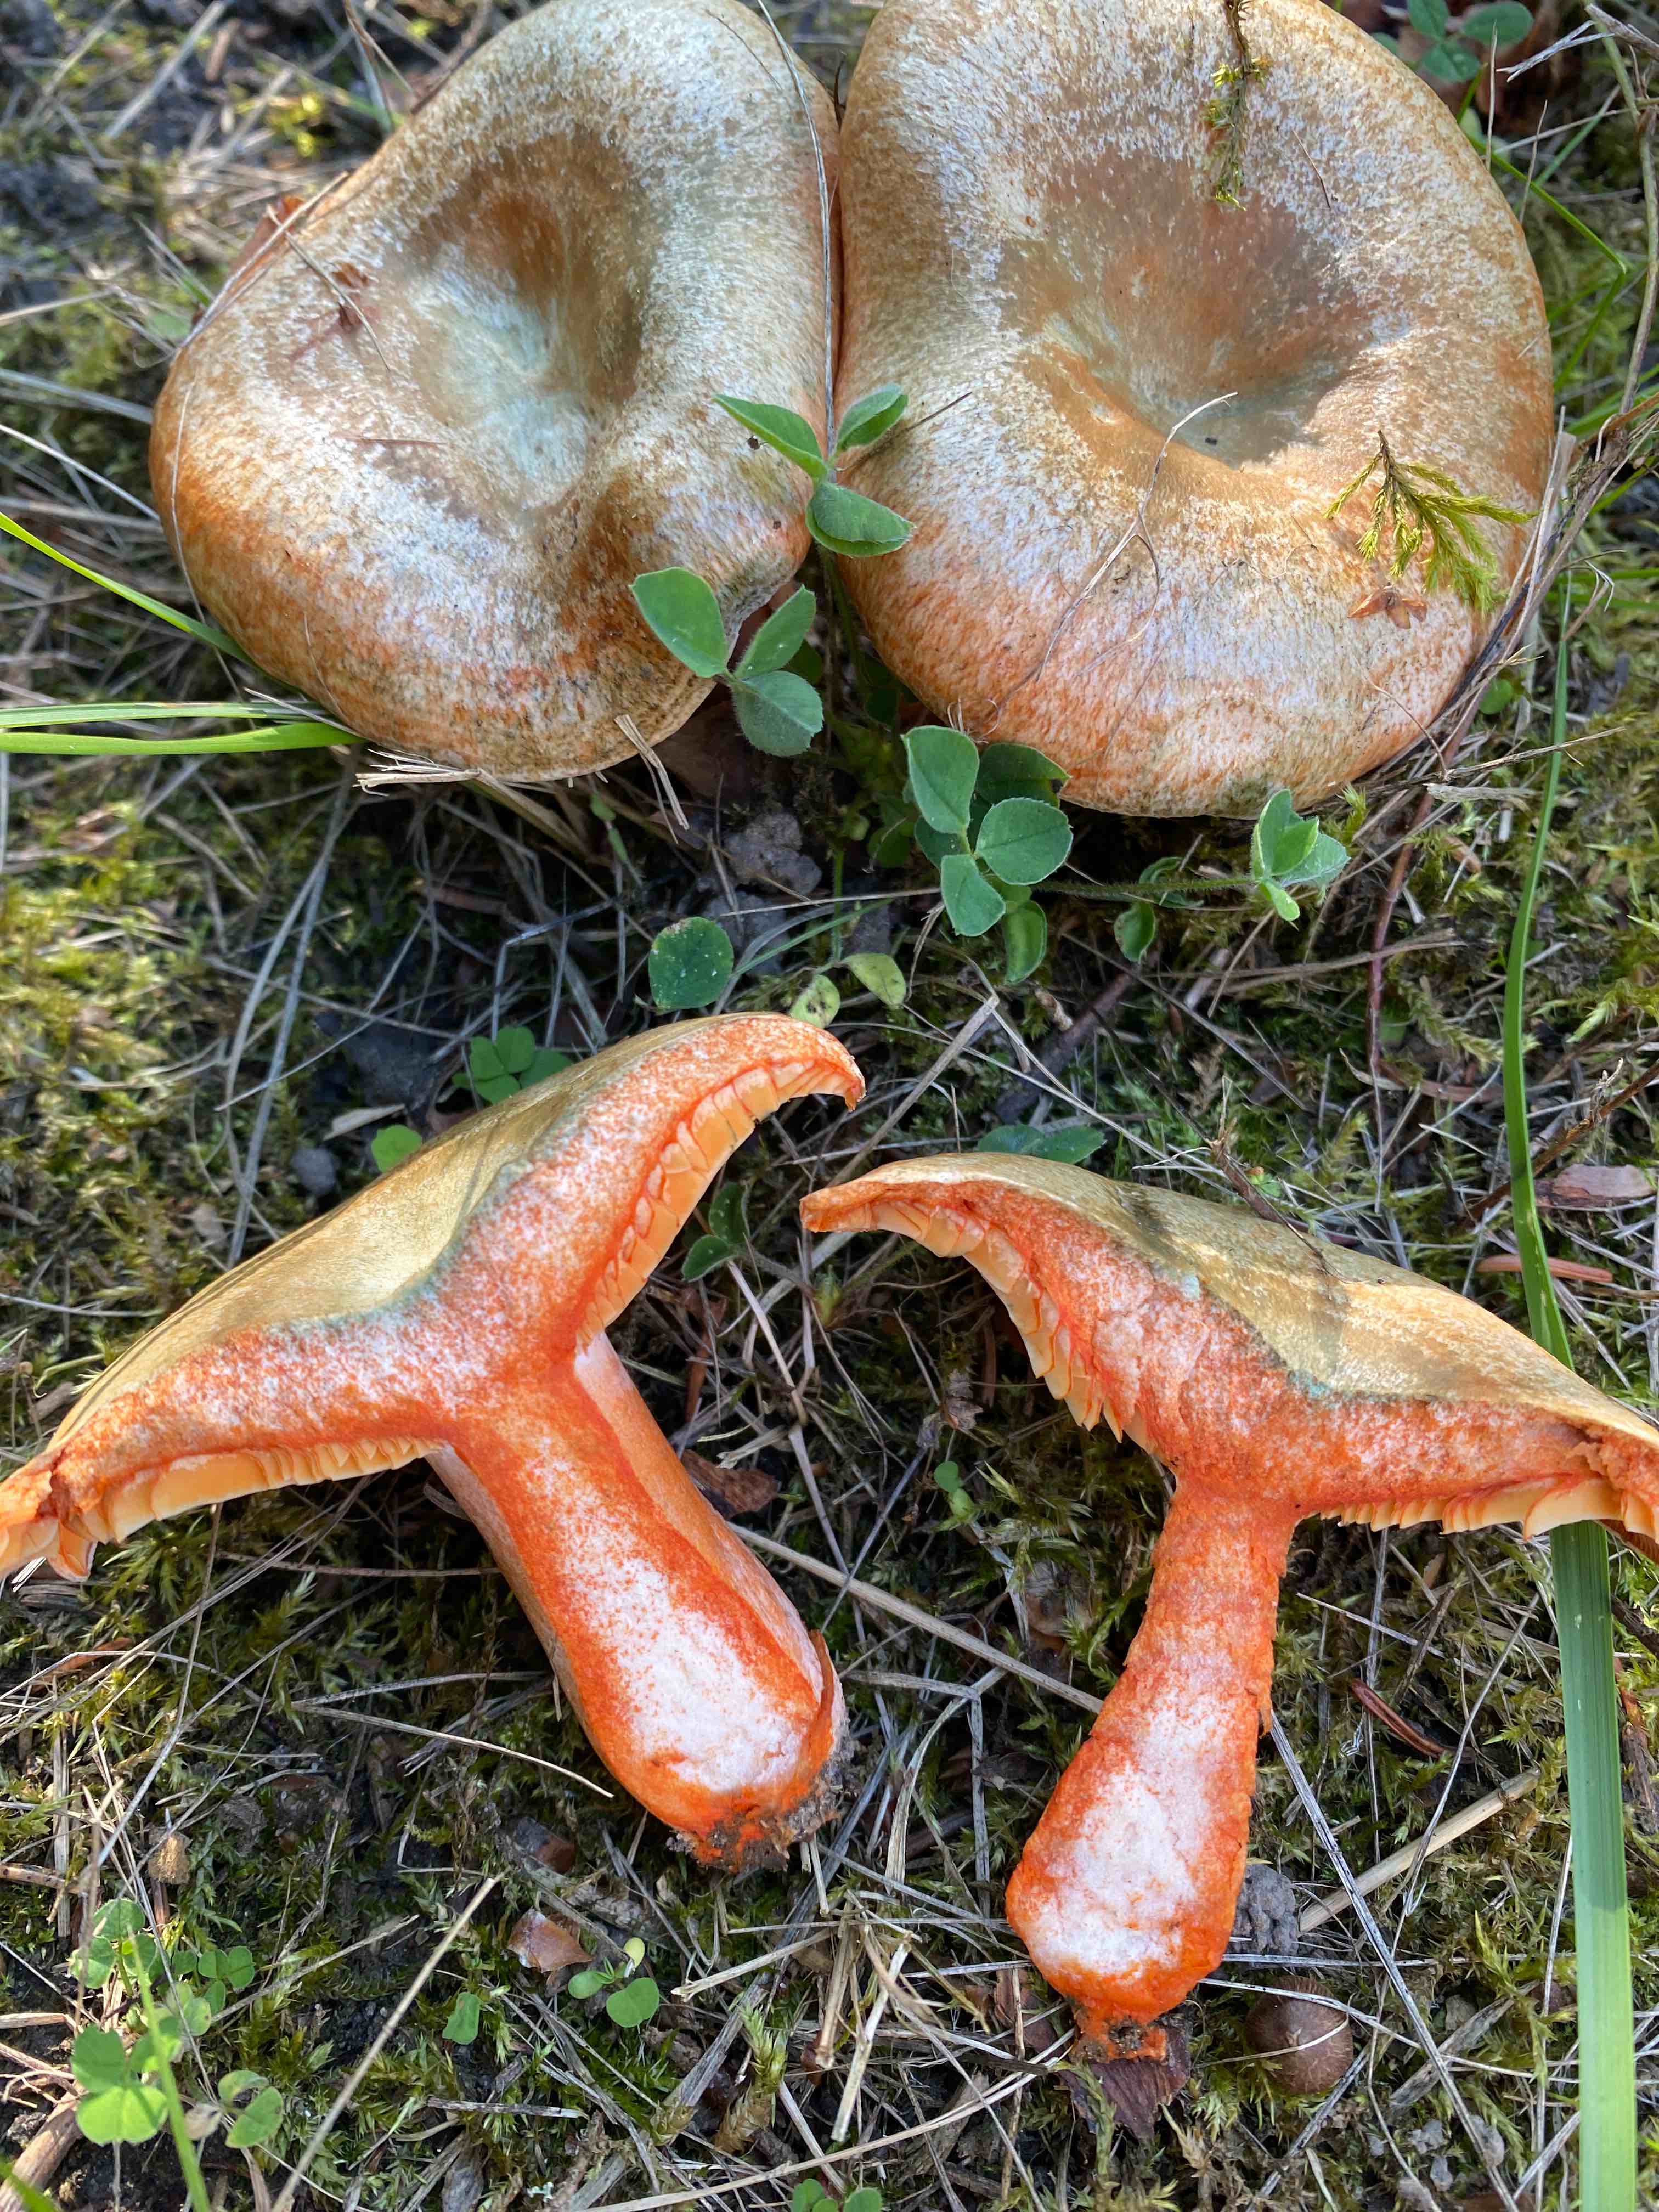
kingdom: Fungi
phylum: Basidiomycota
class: Agaricomycetes
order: Russulales
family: Russulaceae
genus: Lactarius
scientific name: Lactarius deterrimus
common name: gran-mælkehat
